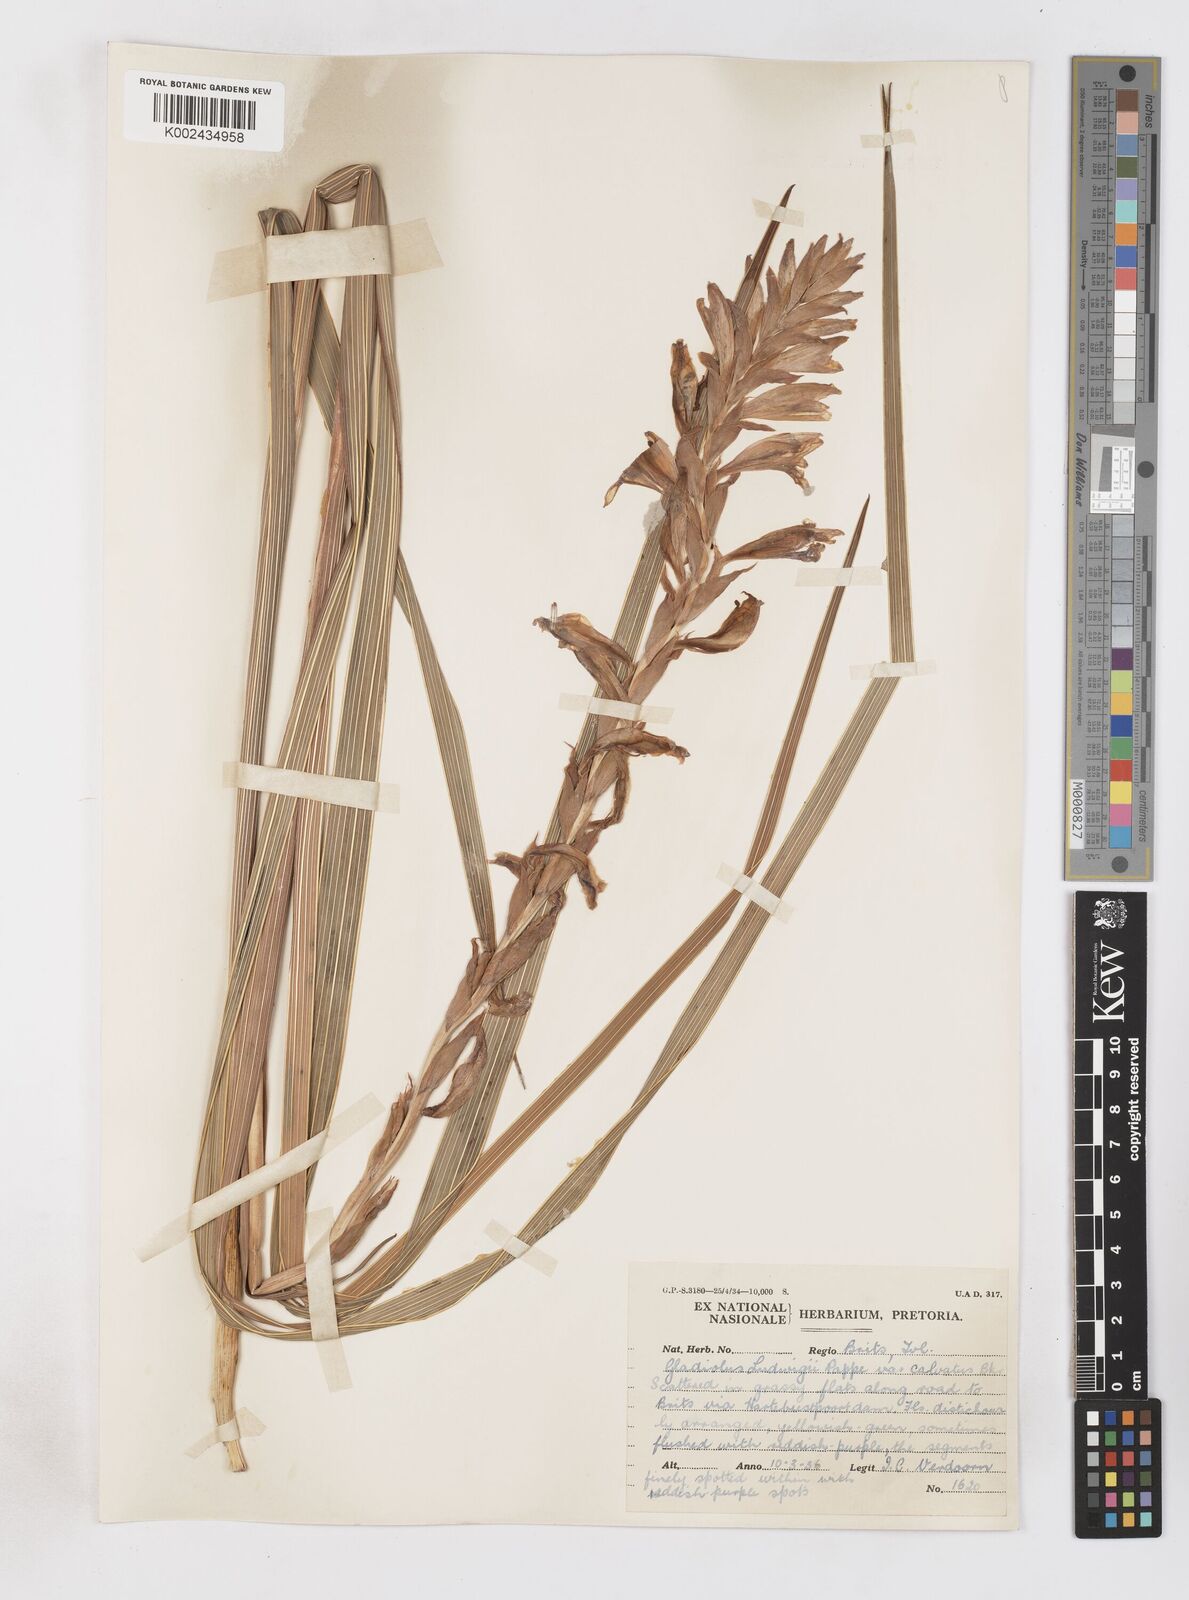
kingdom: Plantae
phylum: Tracheophyta
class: Liliopsida
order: Asparagales
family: Iridaceae
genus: Gladiolus
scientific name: Gladiolus sericeovillosus
